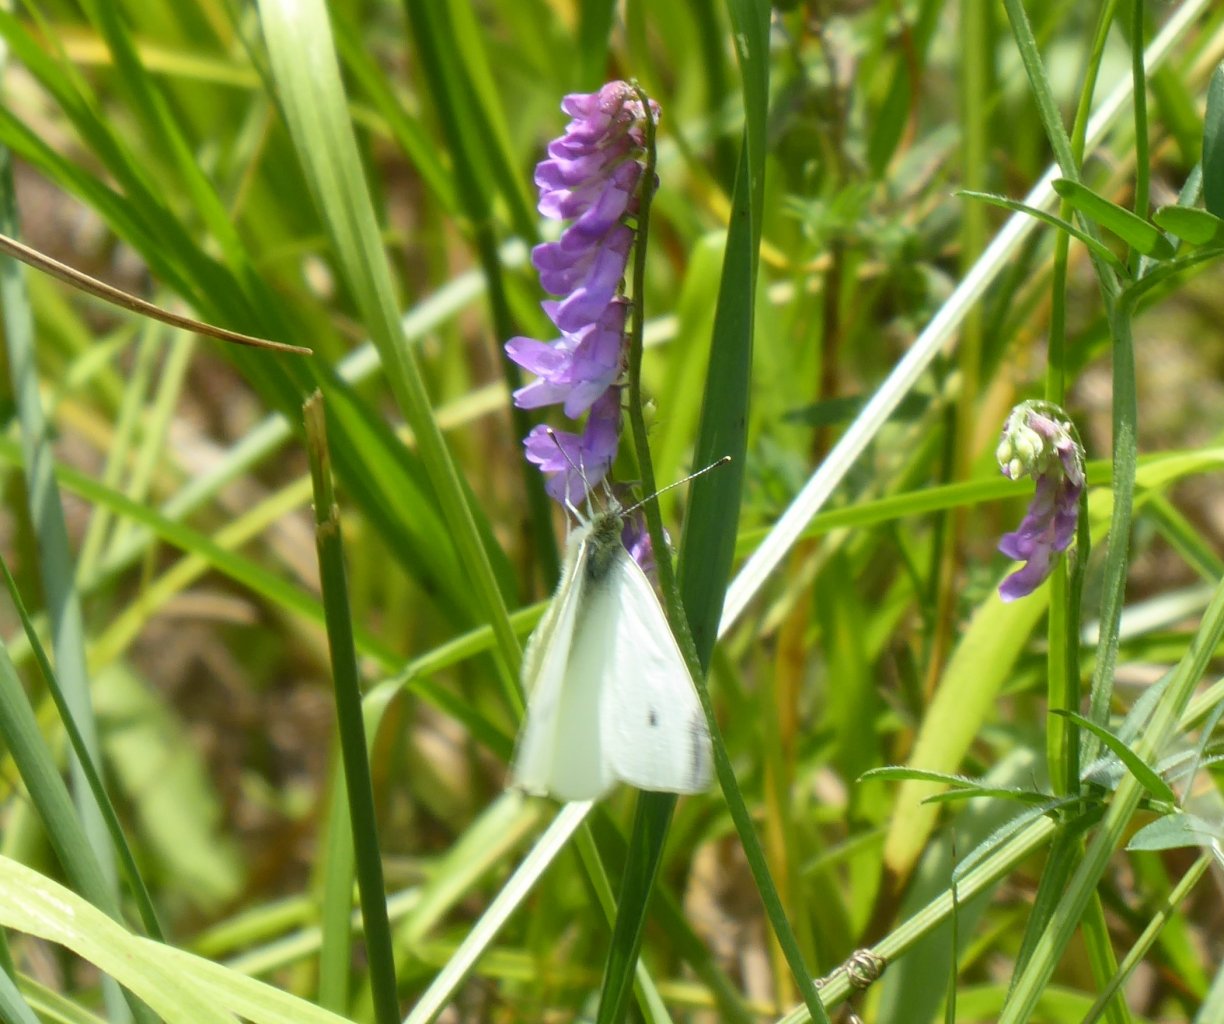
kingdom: Animalia
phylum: Arthropoda
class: Insecta
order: Lepidoptera
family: Pieridae
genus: Pieris
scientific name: Pieris rapae
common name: Cabbage White
